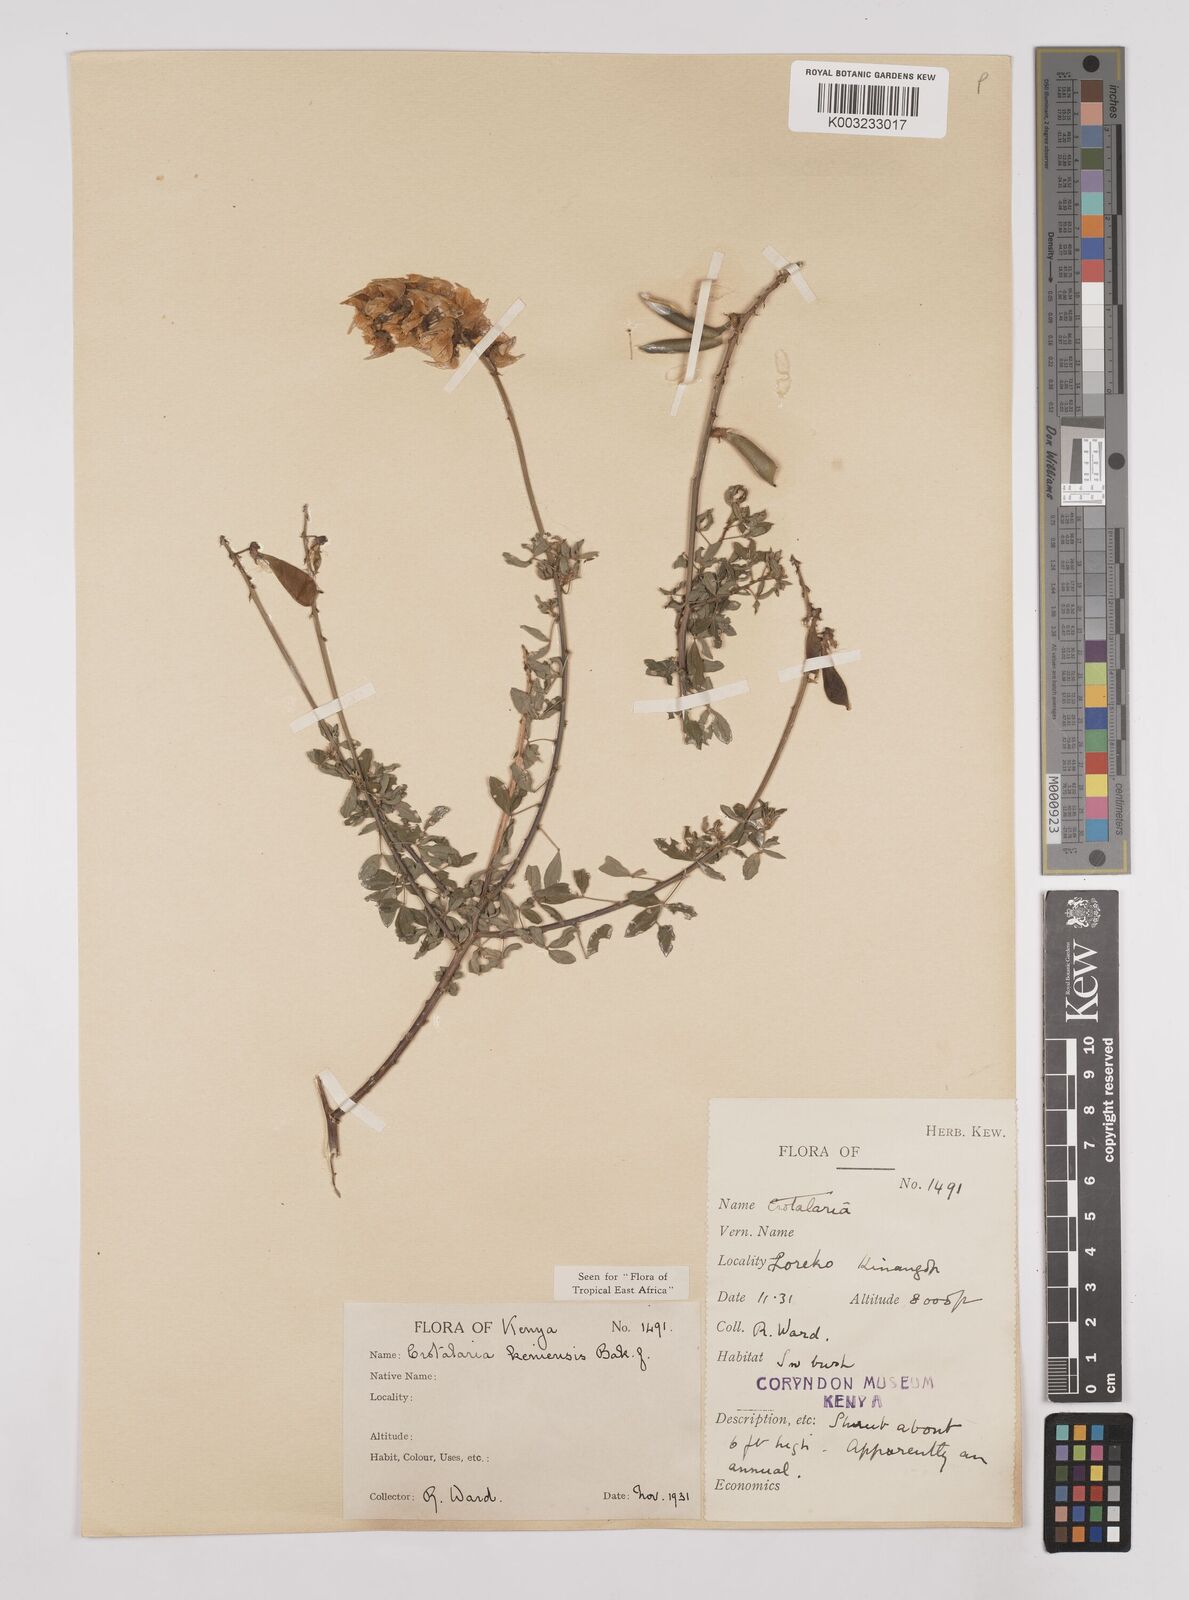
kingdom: Plantae
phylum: Tracheophyta
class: Magnoliopsida
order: Fabales
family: Fabaceae
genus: Crotalaria
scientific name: Crotalaria keniensis
